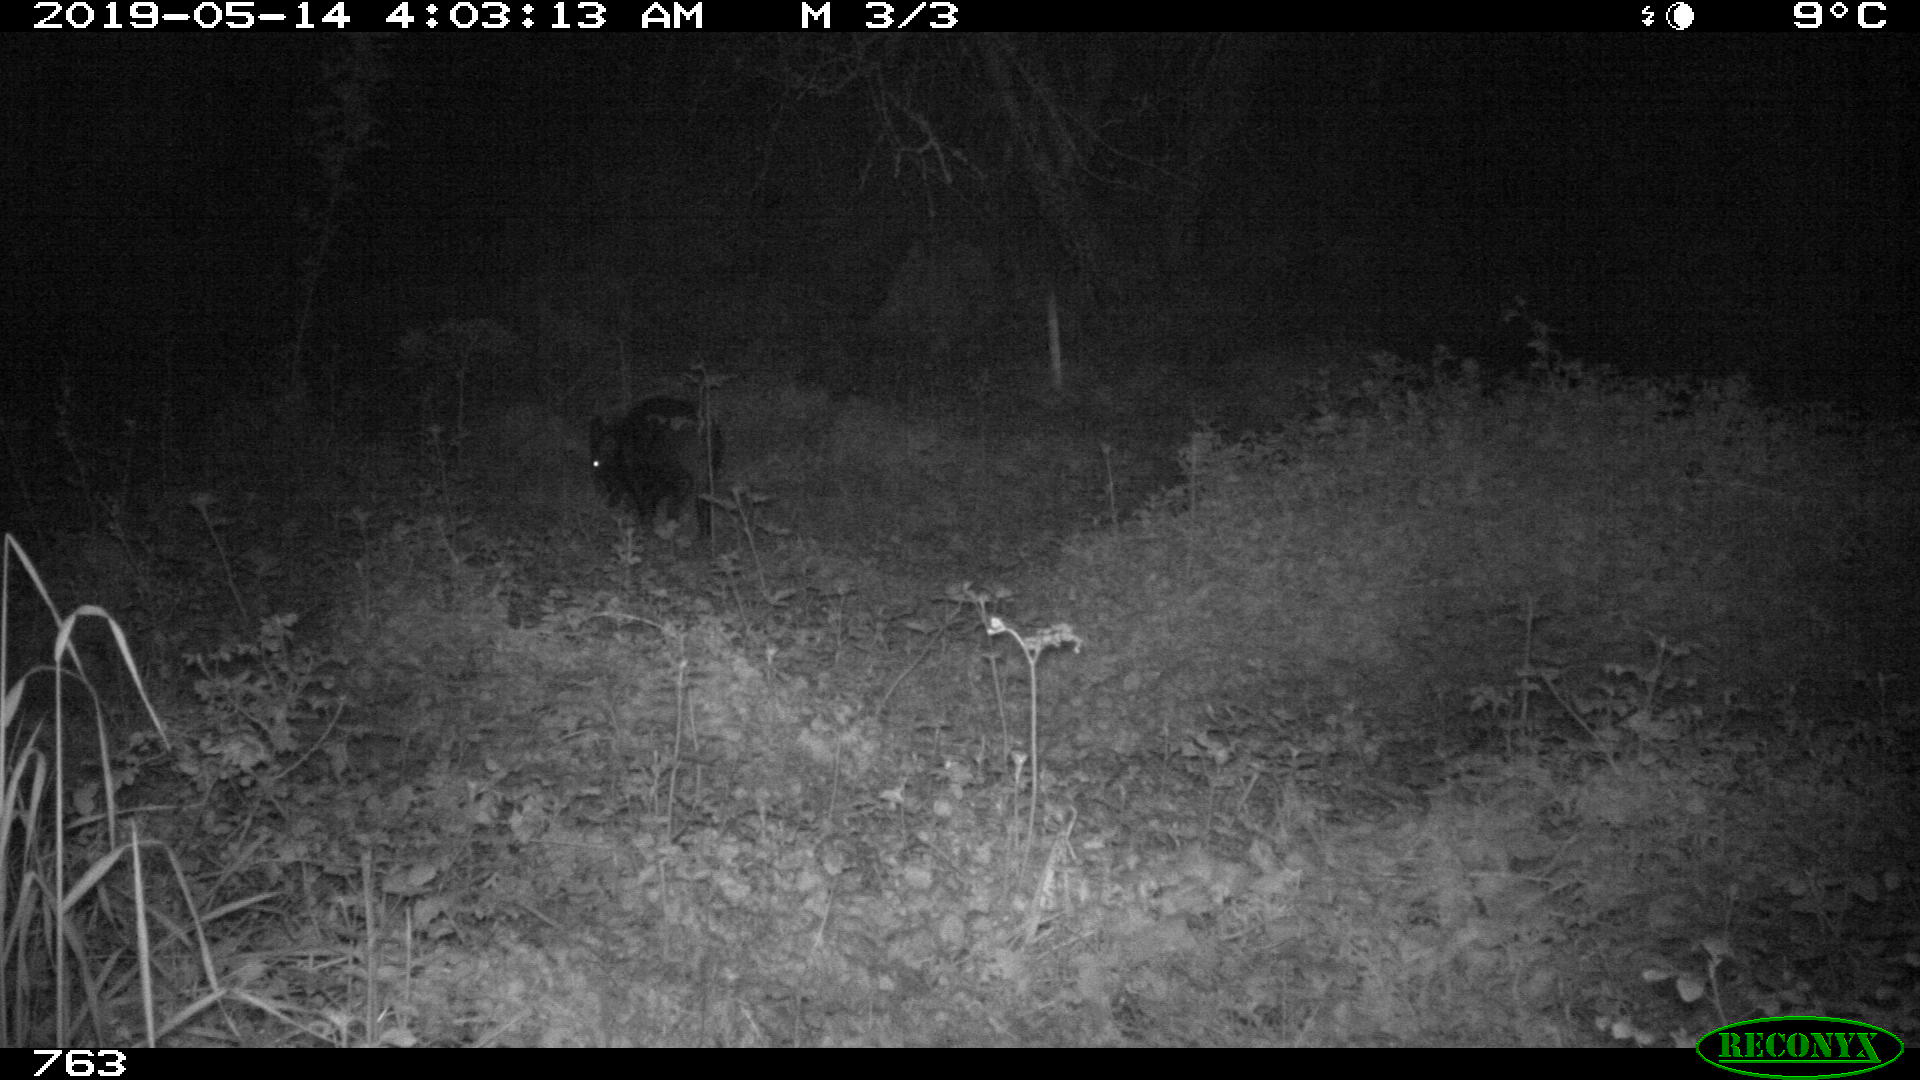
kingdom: Animalia
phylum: Chordata
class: Mammalia
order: Artiodactyla
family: Suidae
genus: Sus
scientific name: Sus scrofa
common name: Wild boar
